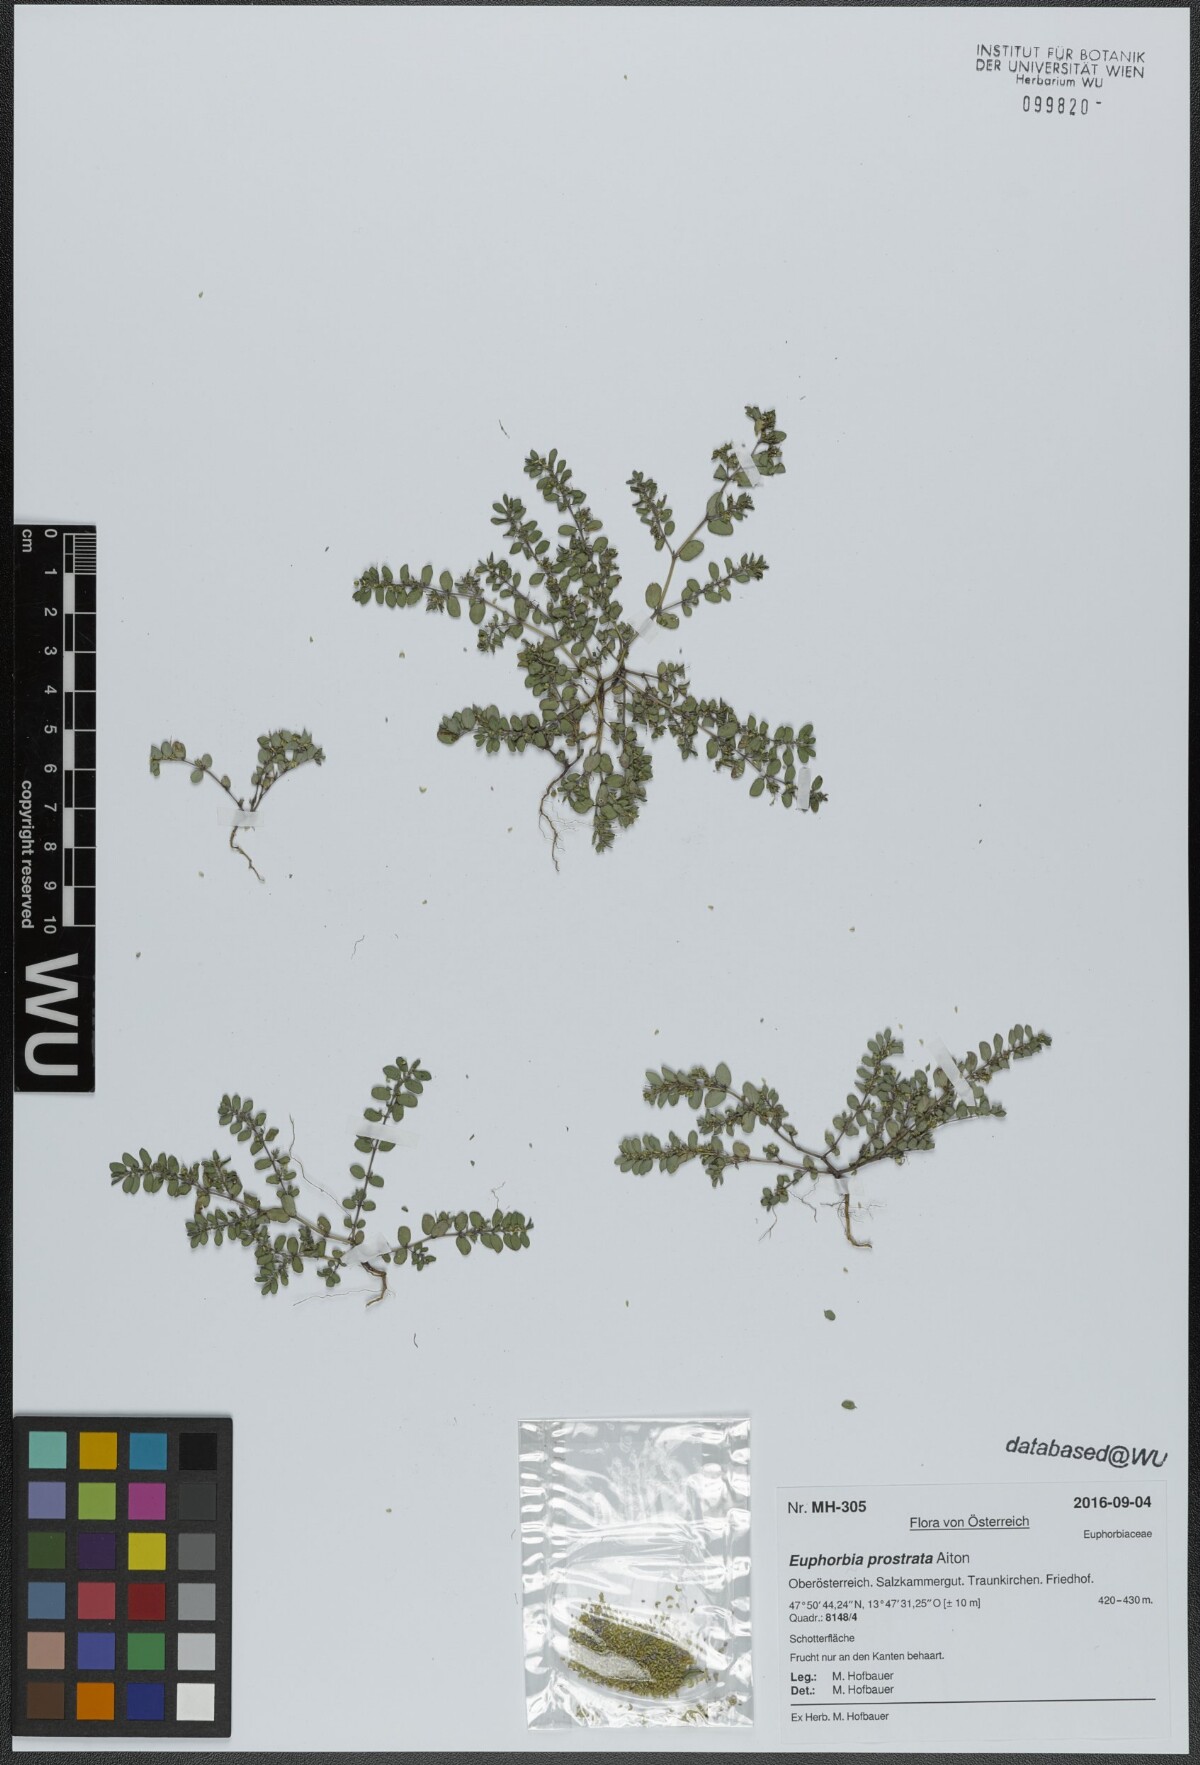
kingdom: Plantae
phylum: Tracheophyta
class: Magnoliopsida
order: Malpighiales
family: Euphorbiaceae
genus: Euphorbia
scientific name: Euphorbia prostrata
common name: Prostrate sandmat
